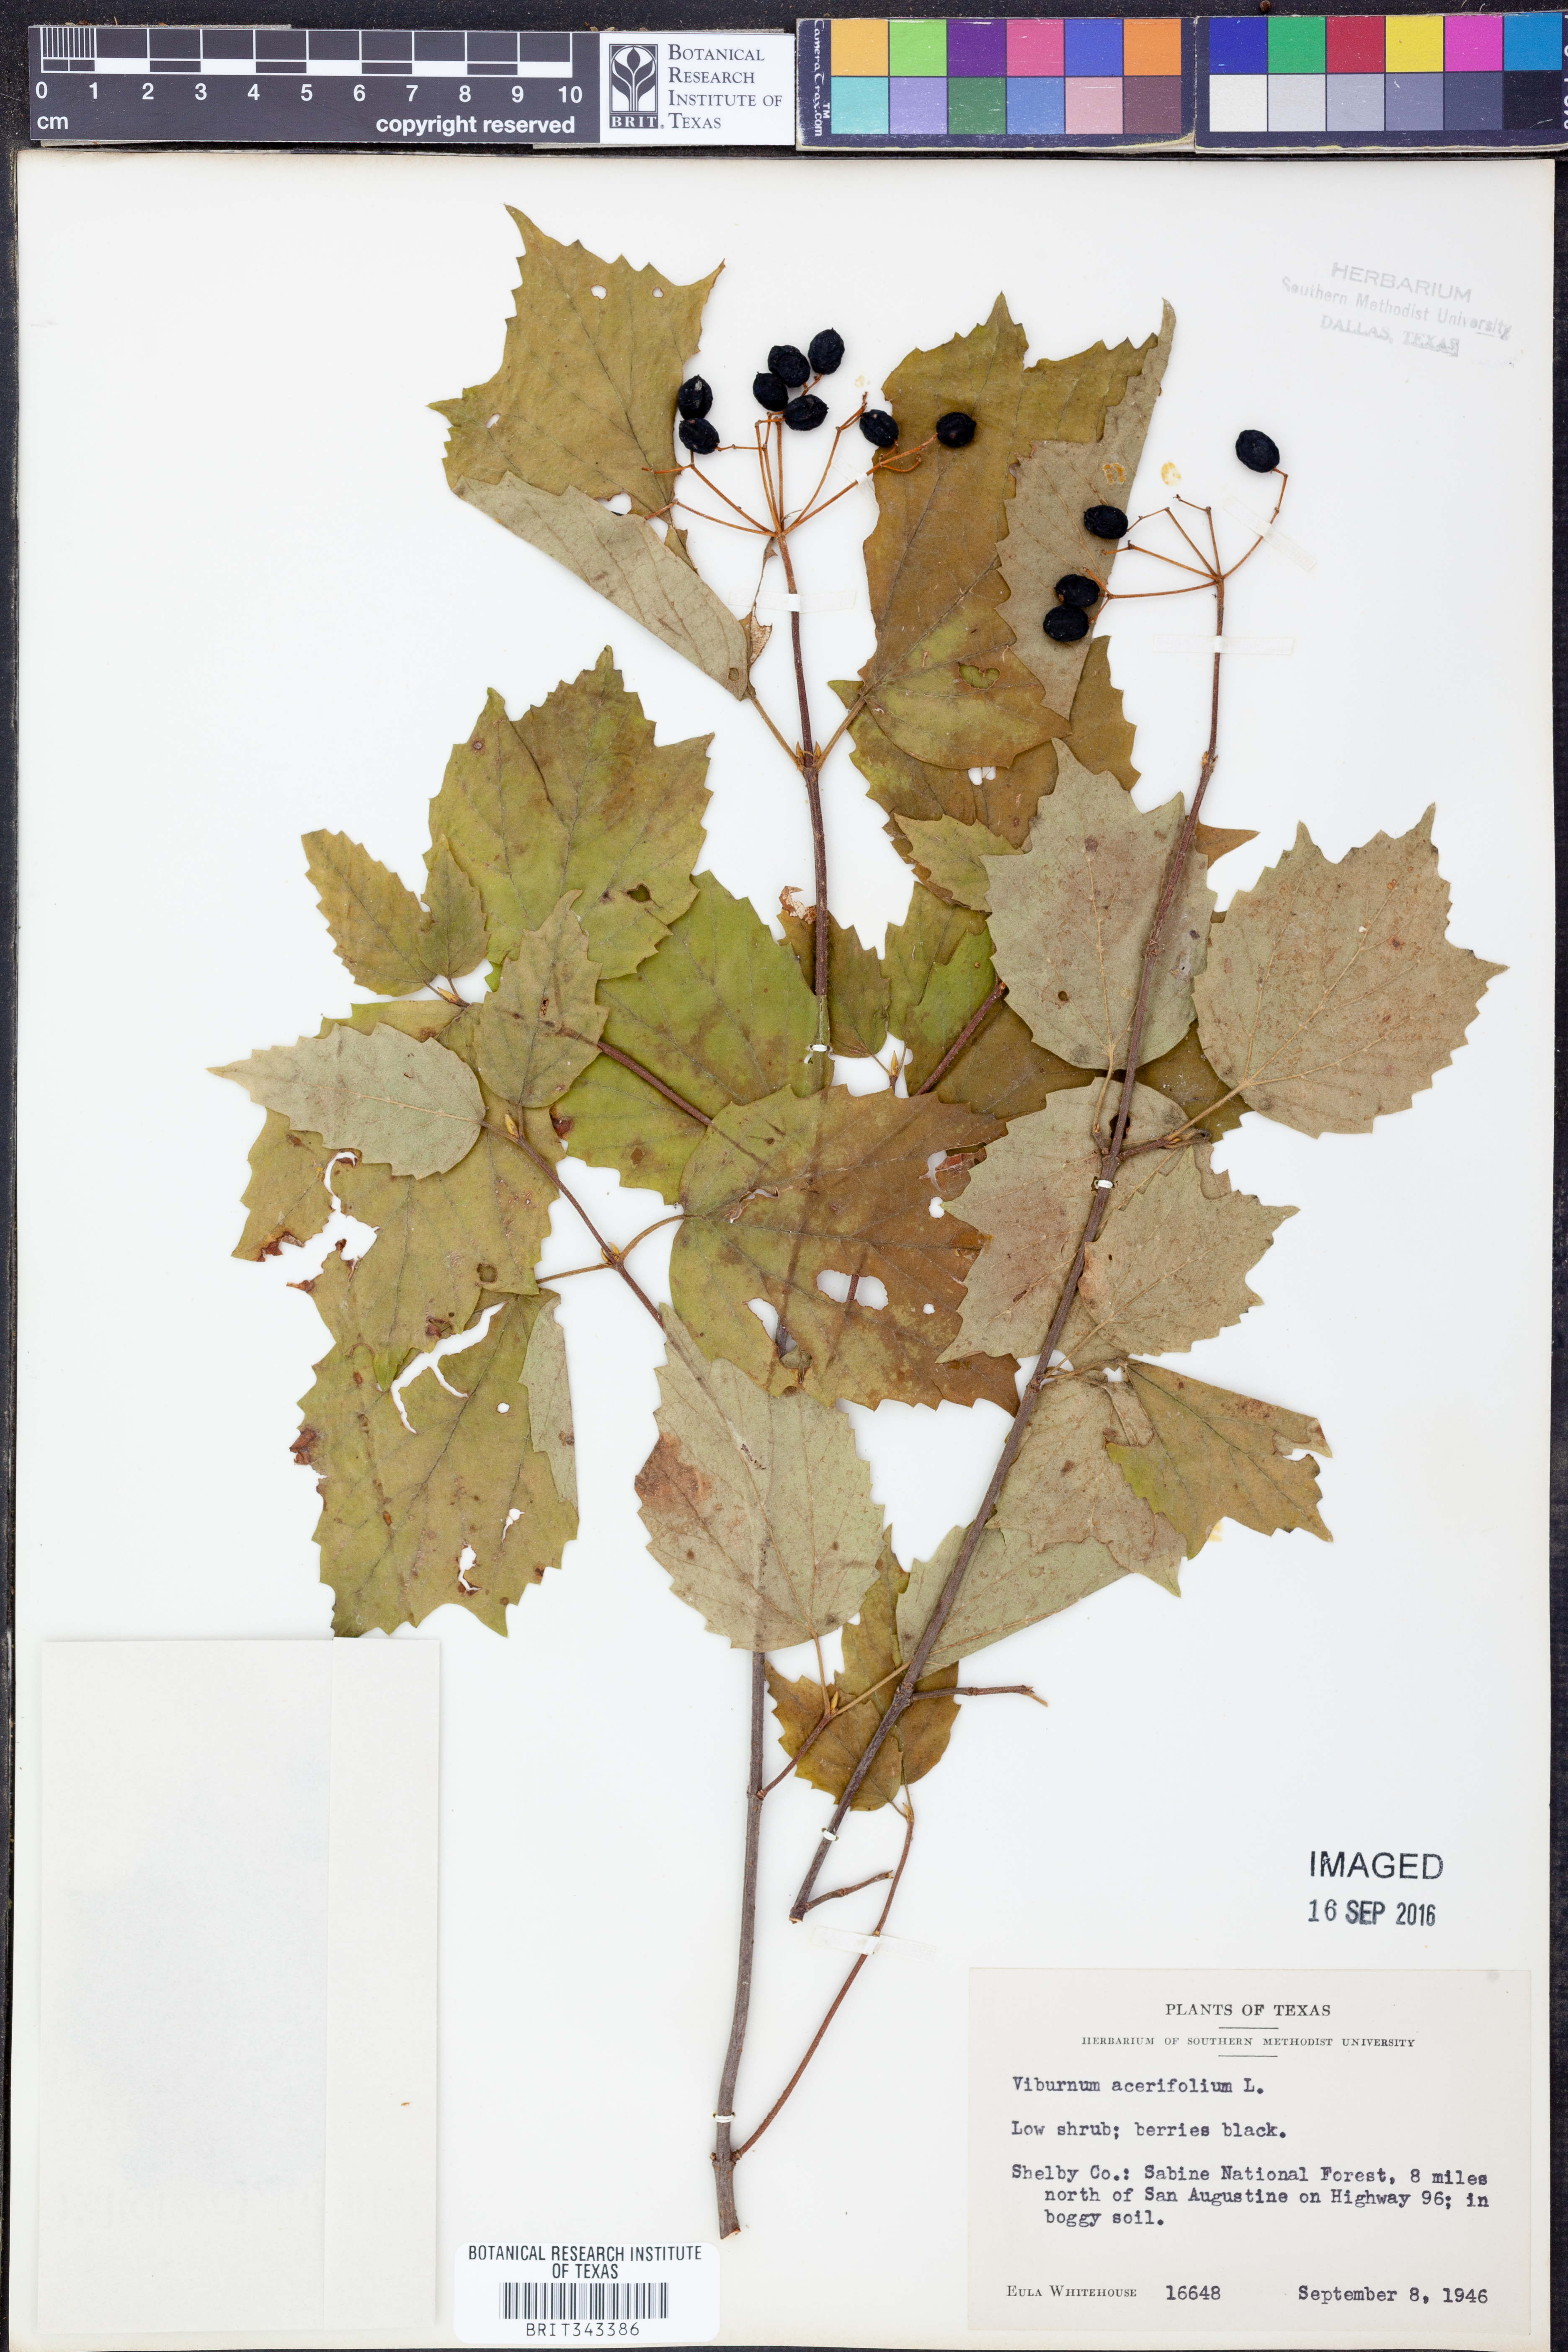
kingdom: Plantae
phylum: Tracheophyta
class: Magnoliopsida
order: Dipsacales
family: Viburnaceae
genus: Viburnum
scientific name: Viburnum acerifolium
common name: Dockmackie
